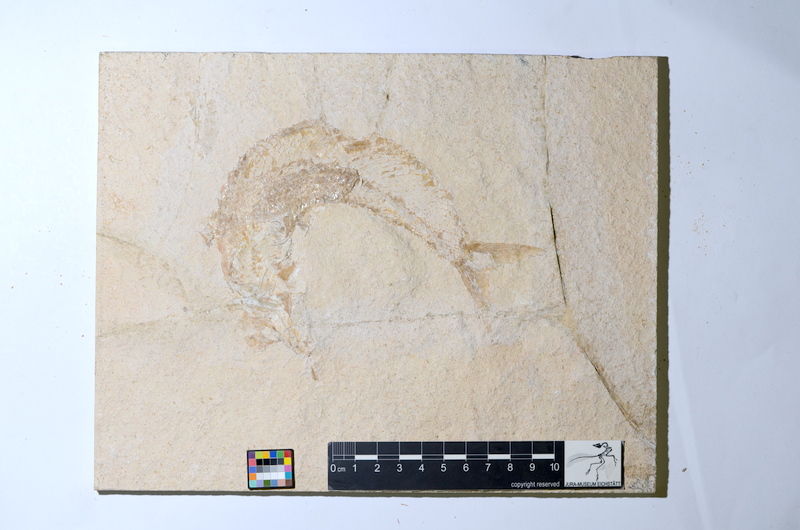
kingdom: Animalia
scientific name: Animalia
